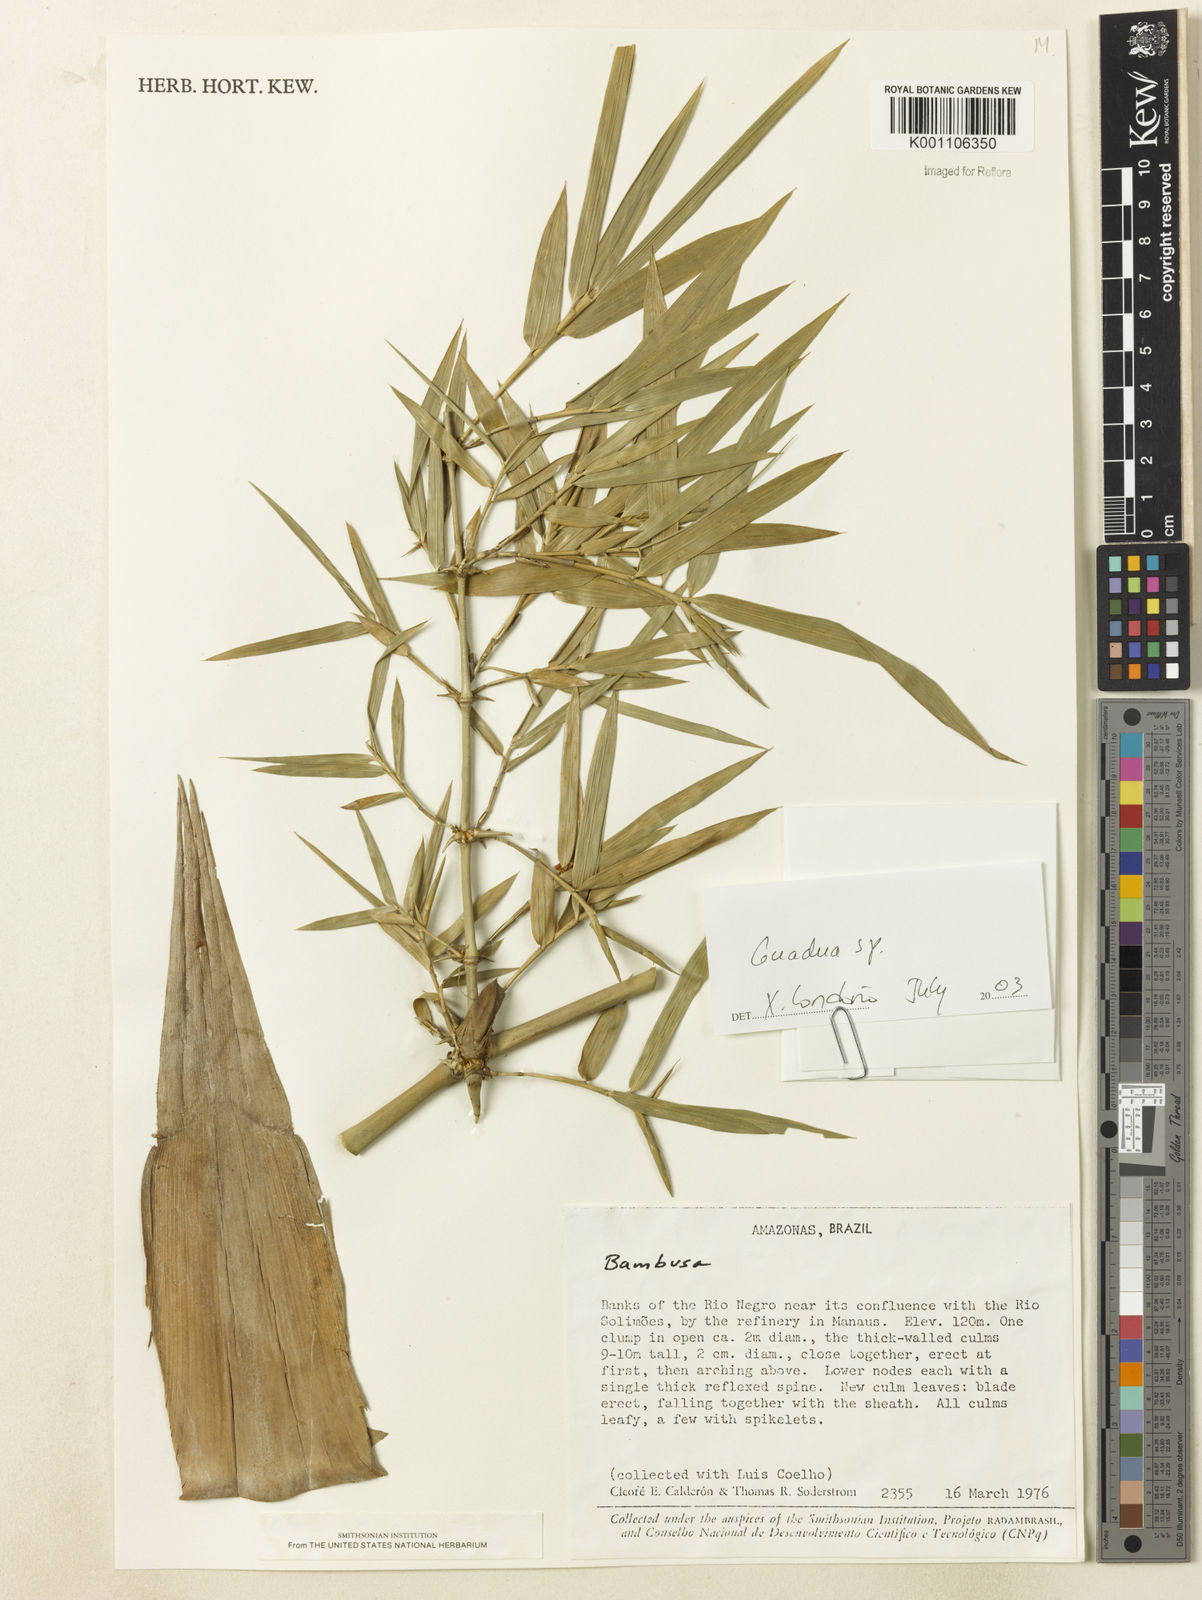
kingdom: Plantae
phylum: Tracheophyta
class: Liliopsida
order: Poales
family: Poaceae
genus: Guadua
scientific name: Guadua paraguayana
